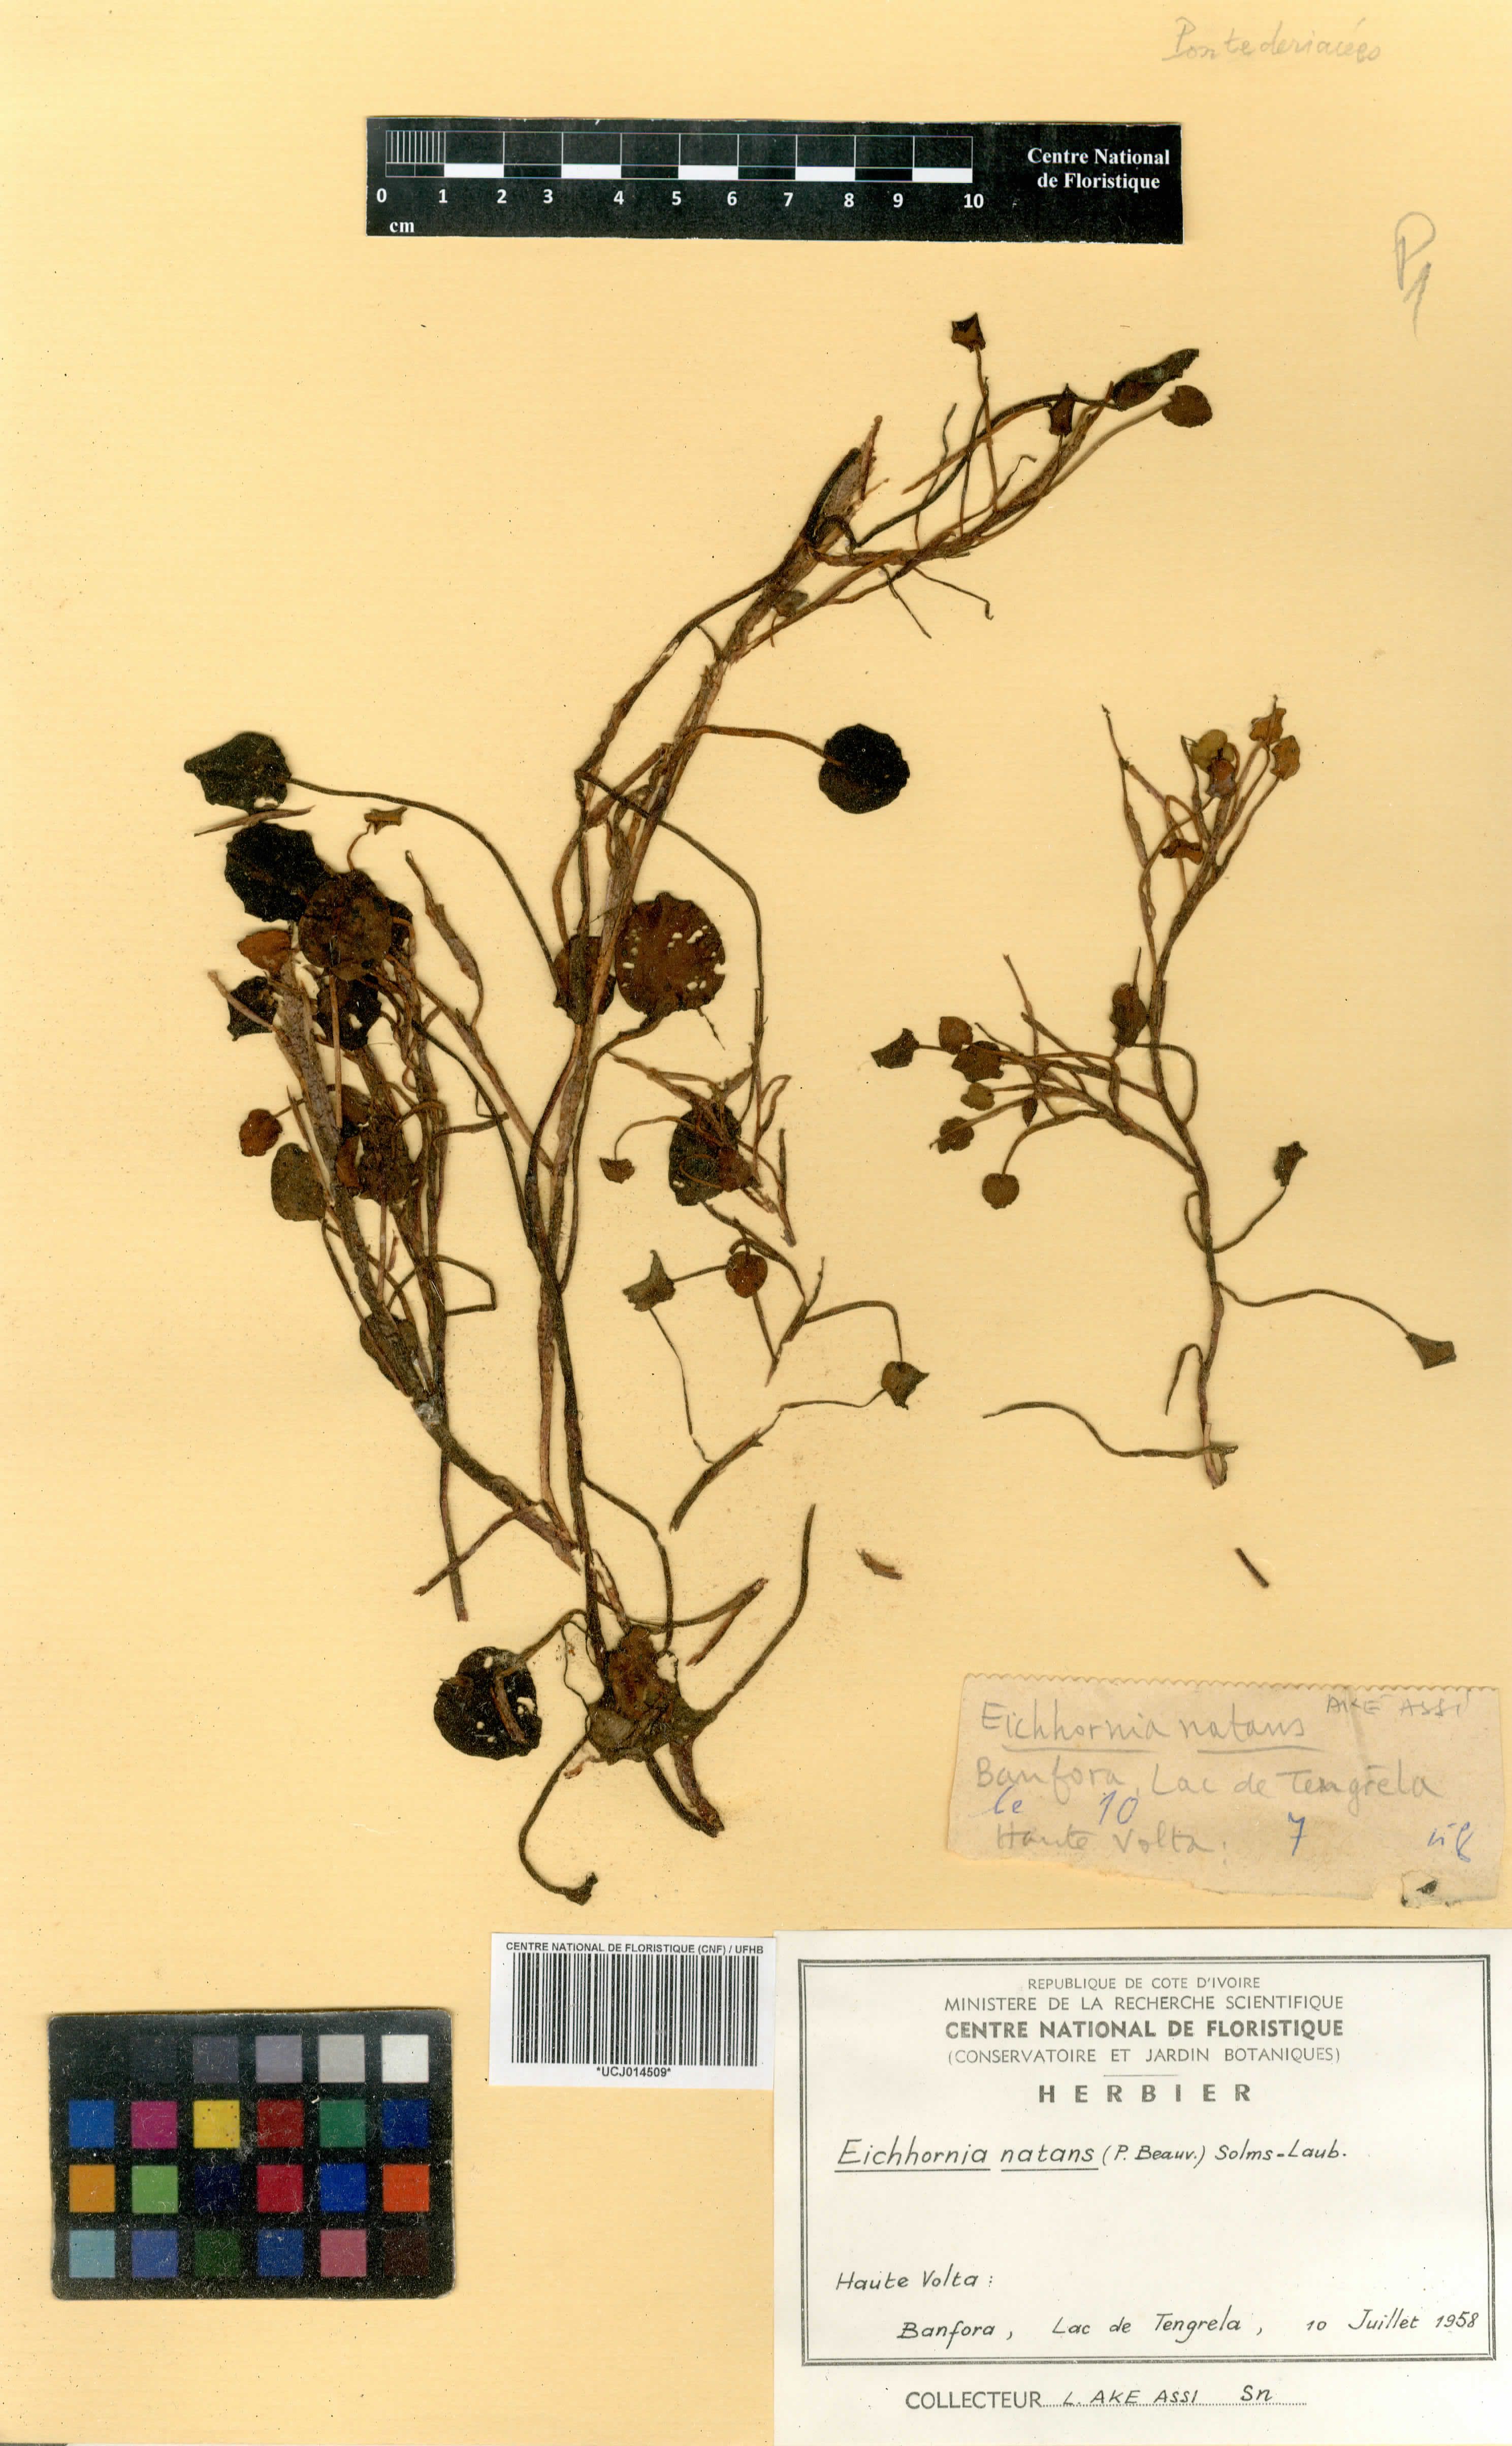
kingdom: Plantae
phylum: Tracheophyta
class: Liliopsida
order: Commelinales
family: Pontederiaceae
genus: Pontederia
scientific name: Pontederia natans
